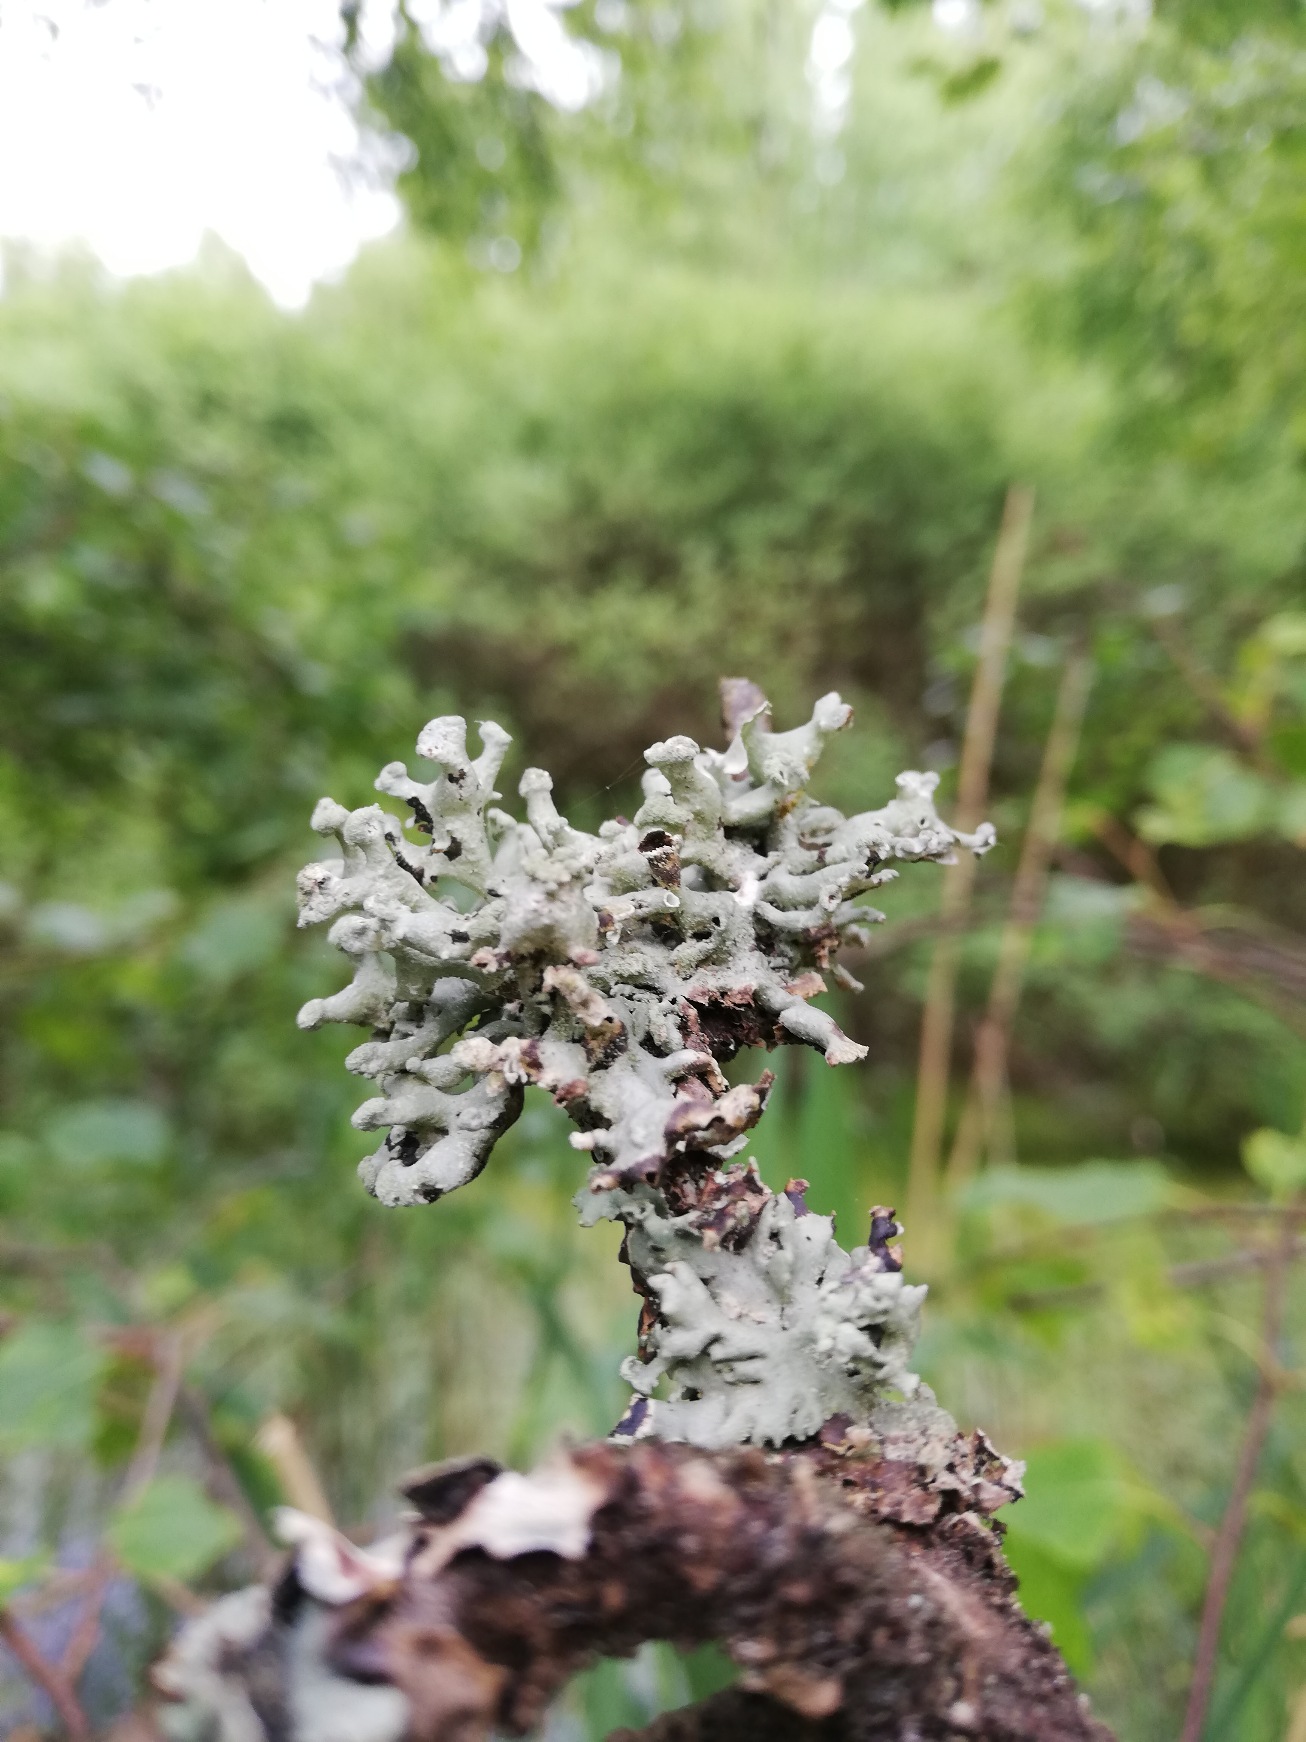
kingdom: Fungi
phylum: Ascomycota
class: Lecanoromycetes
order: Lecanorales
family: Parmeliaceae
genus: Hypogymnia
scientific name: Hypogymnia tubulosa
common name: Finger-kvistlav
